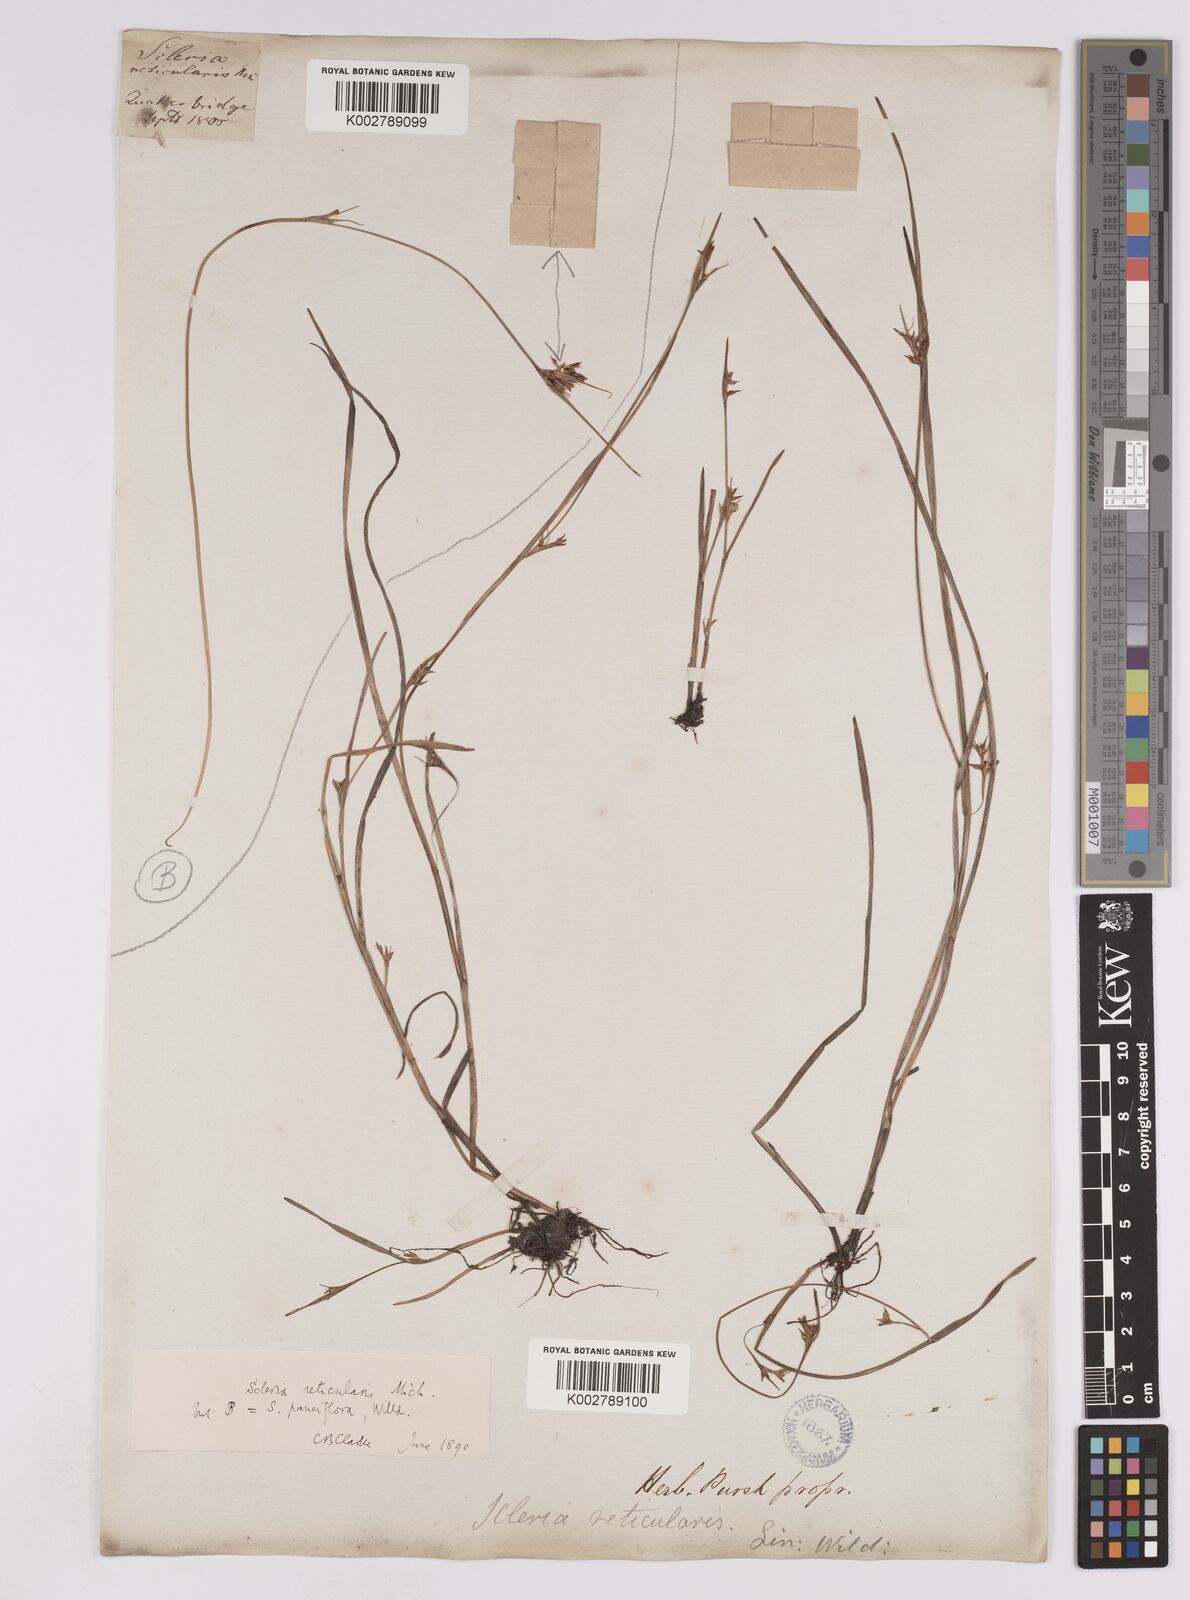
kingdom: Plantae
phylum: Tracheophyta
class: Liliopsida
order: Poales
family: Cyperaceae
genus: Scleria
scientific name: Scleria muehlenbergii
